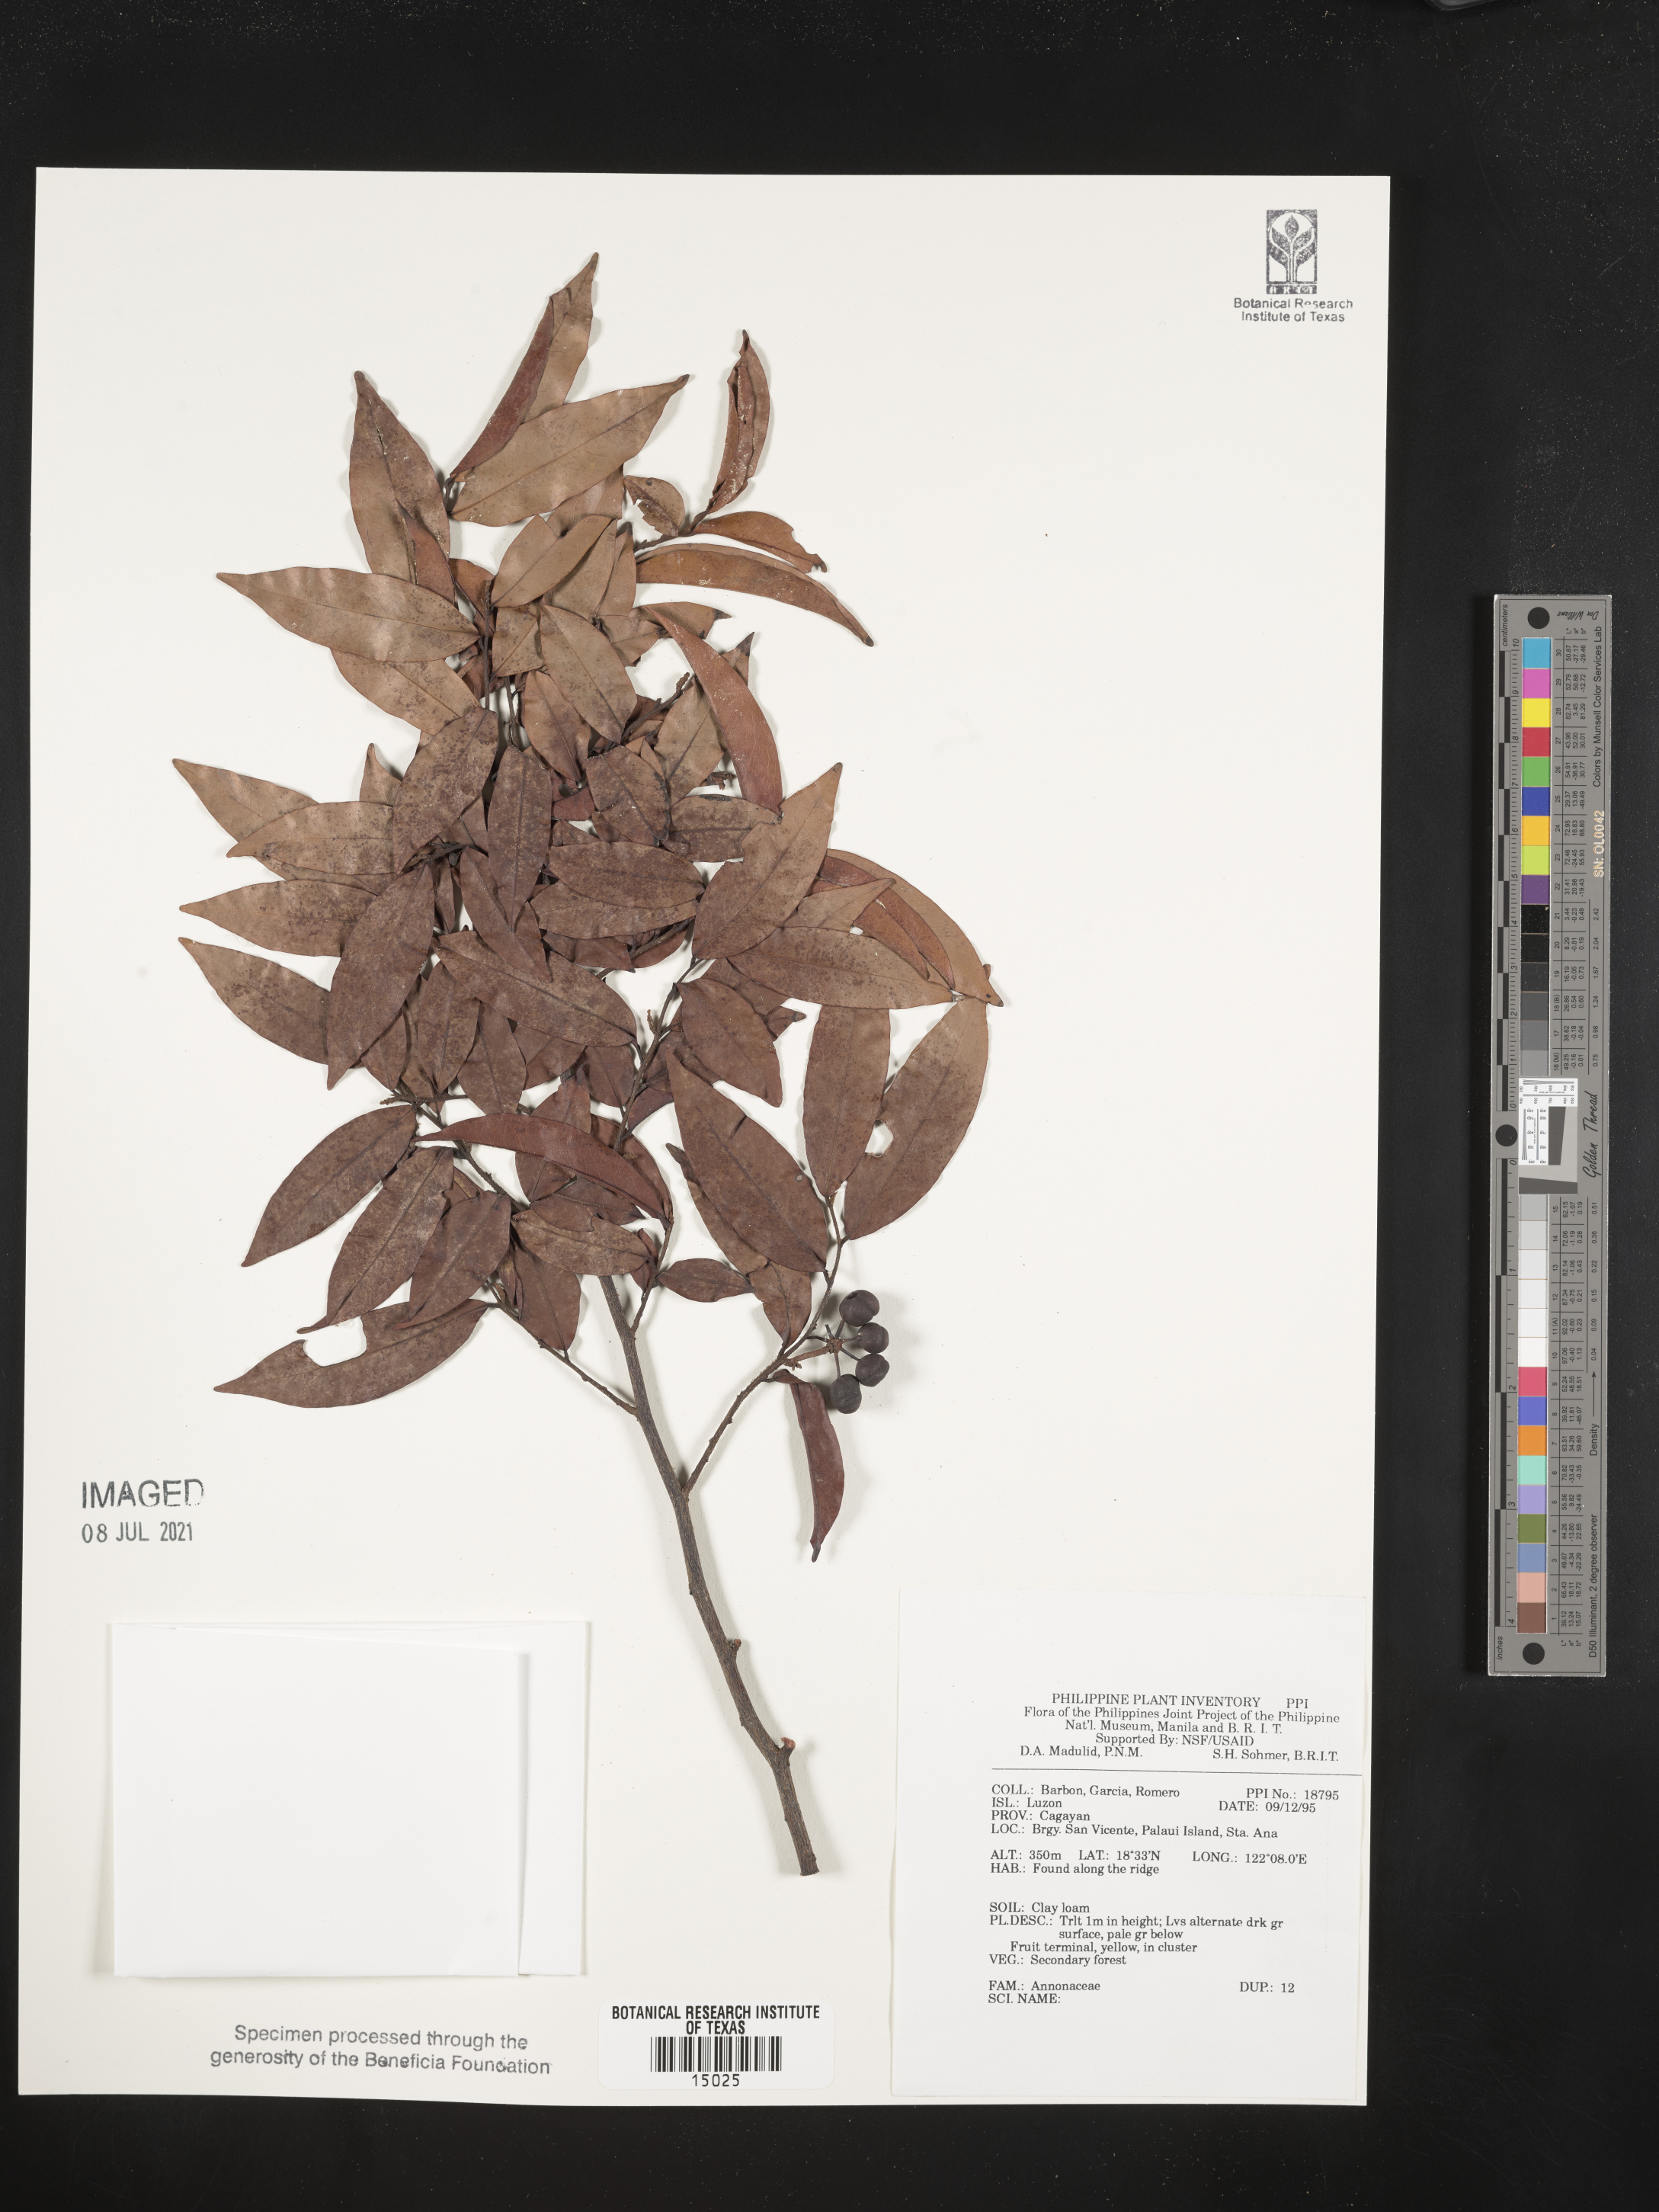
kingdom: Plantae
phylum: Tracheophyta
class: Magnoliopsida
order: Magnoliales
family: Annonaceae
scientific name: Annonaceae
